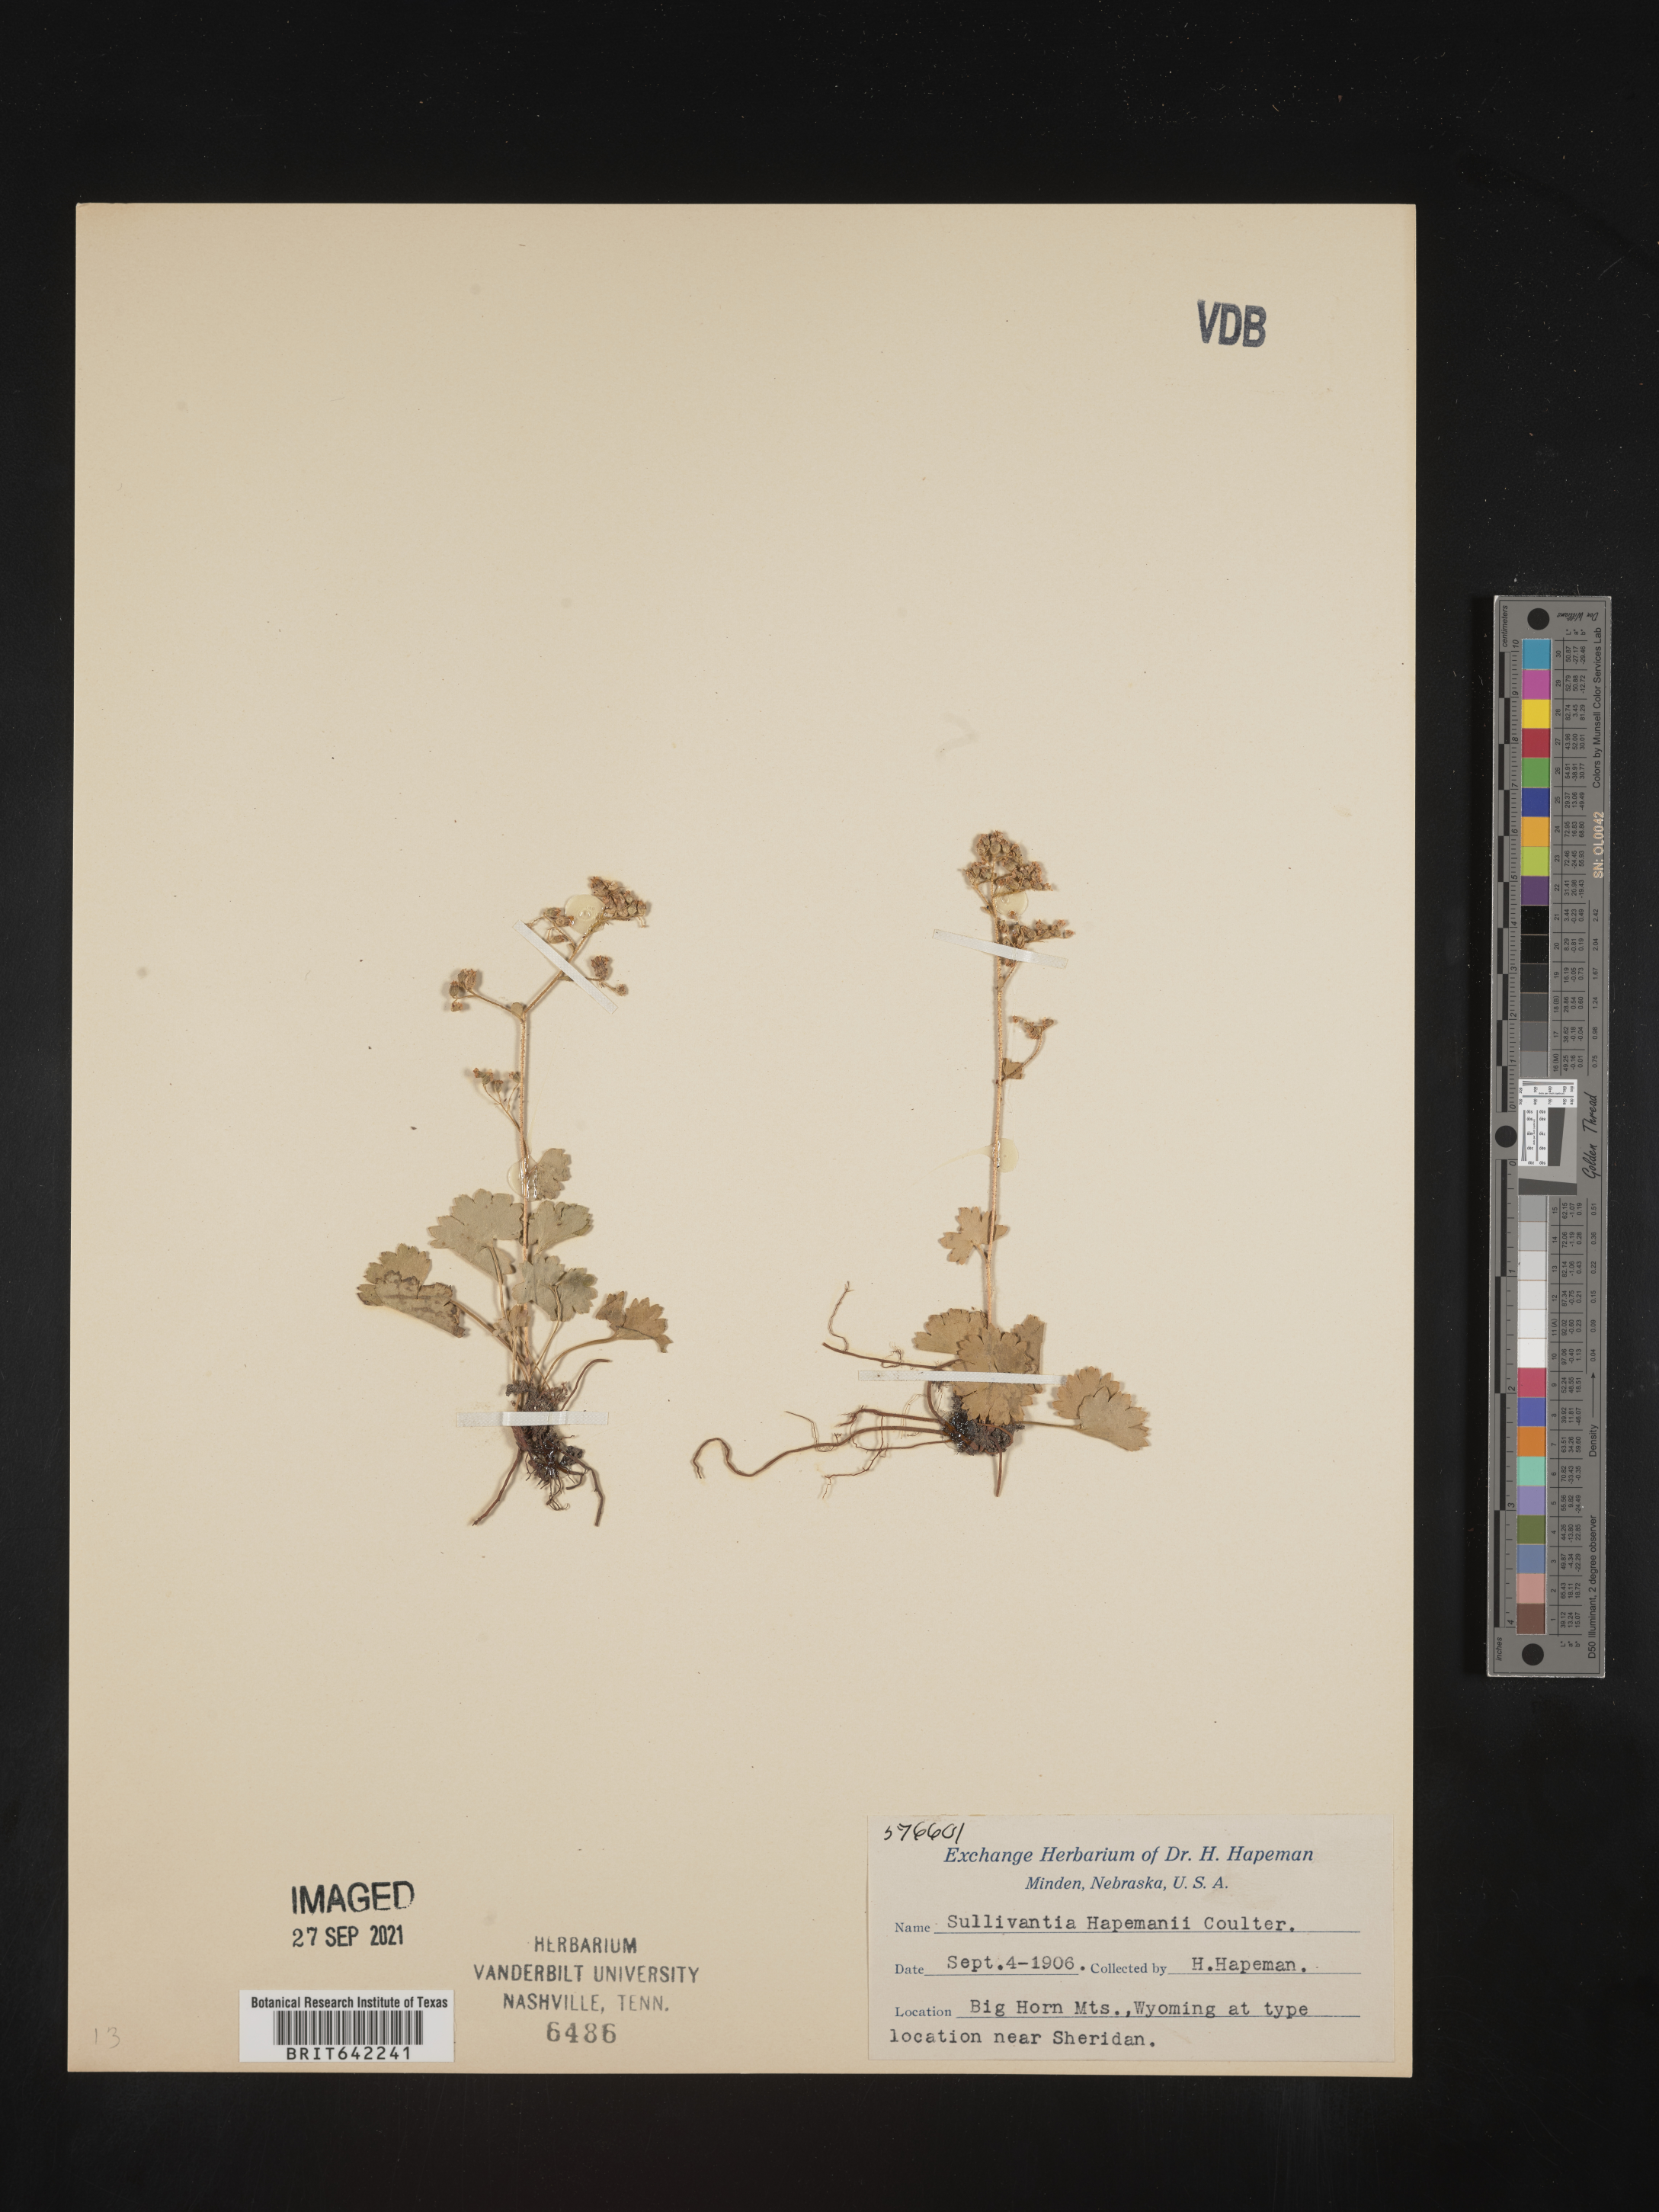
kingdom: Plantae
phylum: Tracheophyta
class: Magnoliopsida
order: Saxifragales
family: Saxifragaceae
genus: Sullivantia
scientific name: Sullivantia hapemanii
